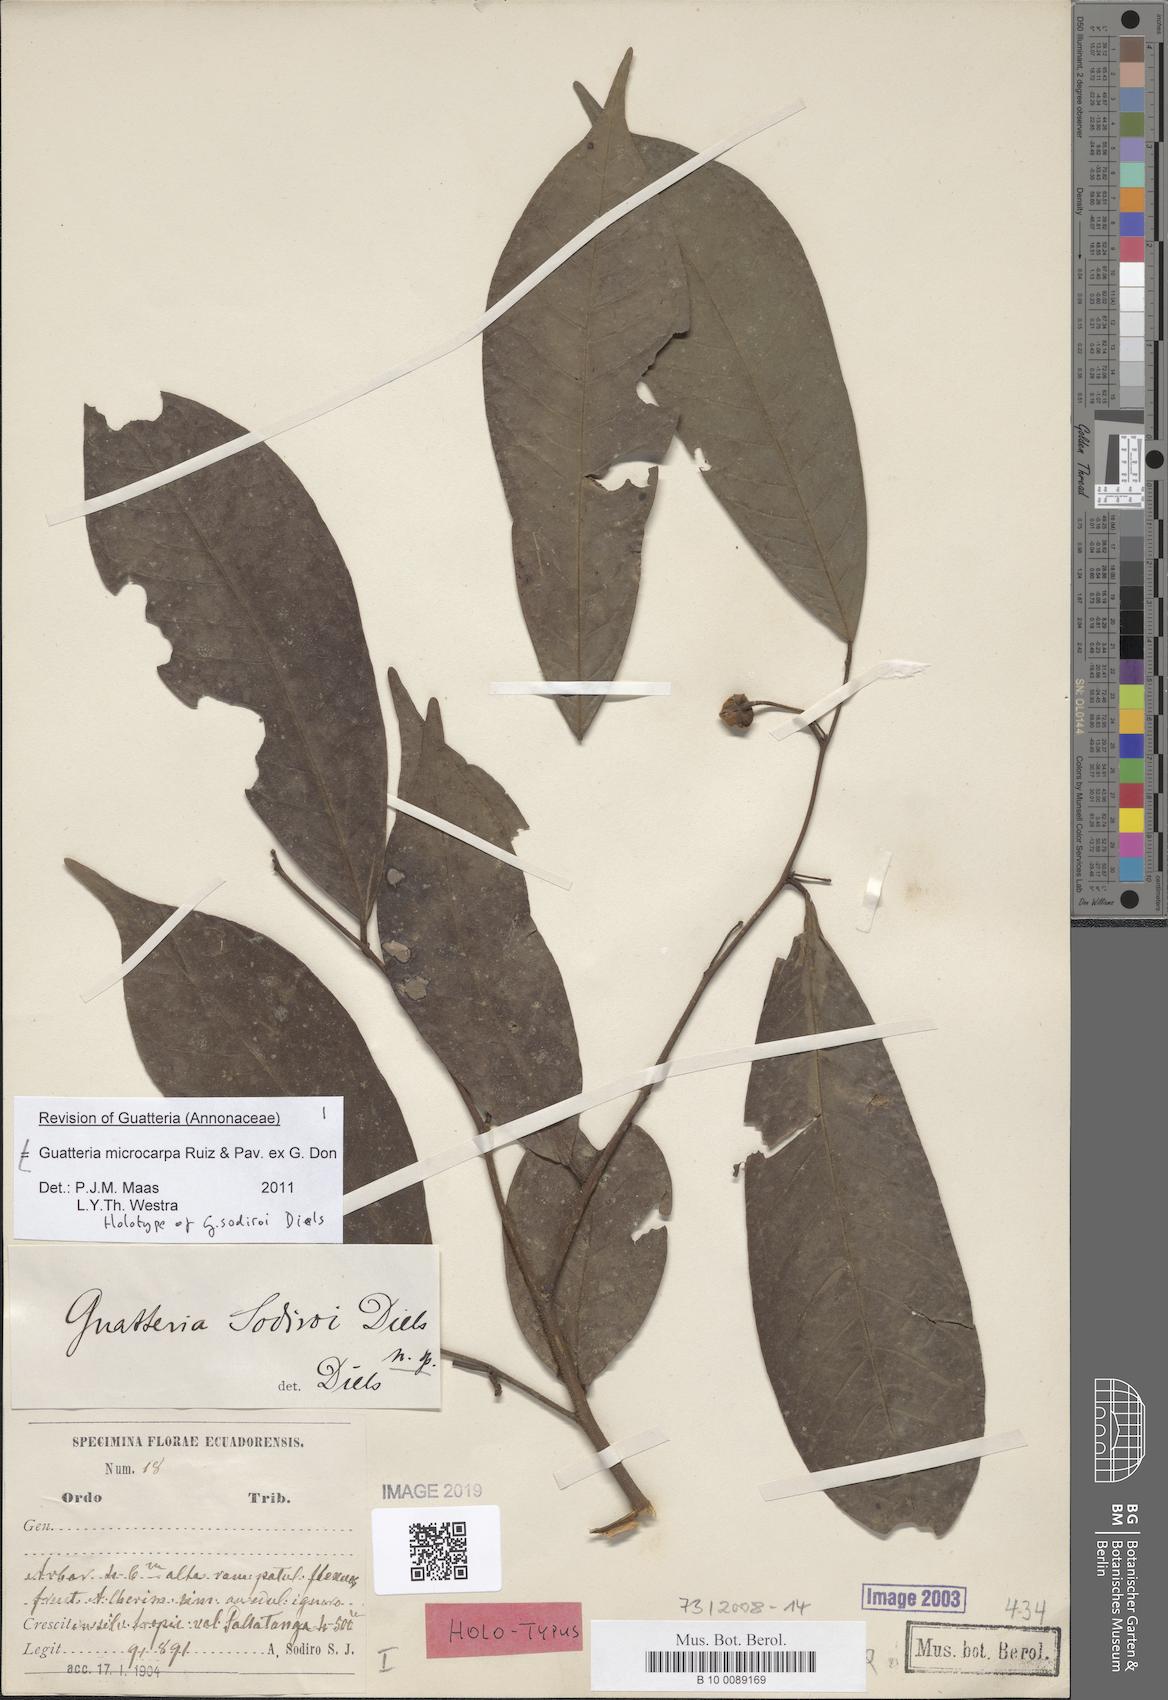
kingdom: Plantae
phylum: Tracheophyta
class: Magnoliopsida
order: Magnoliales
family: Annonaceae
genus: Guatteria
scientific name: Guatteria microcarpa
